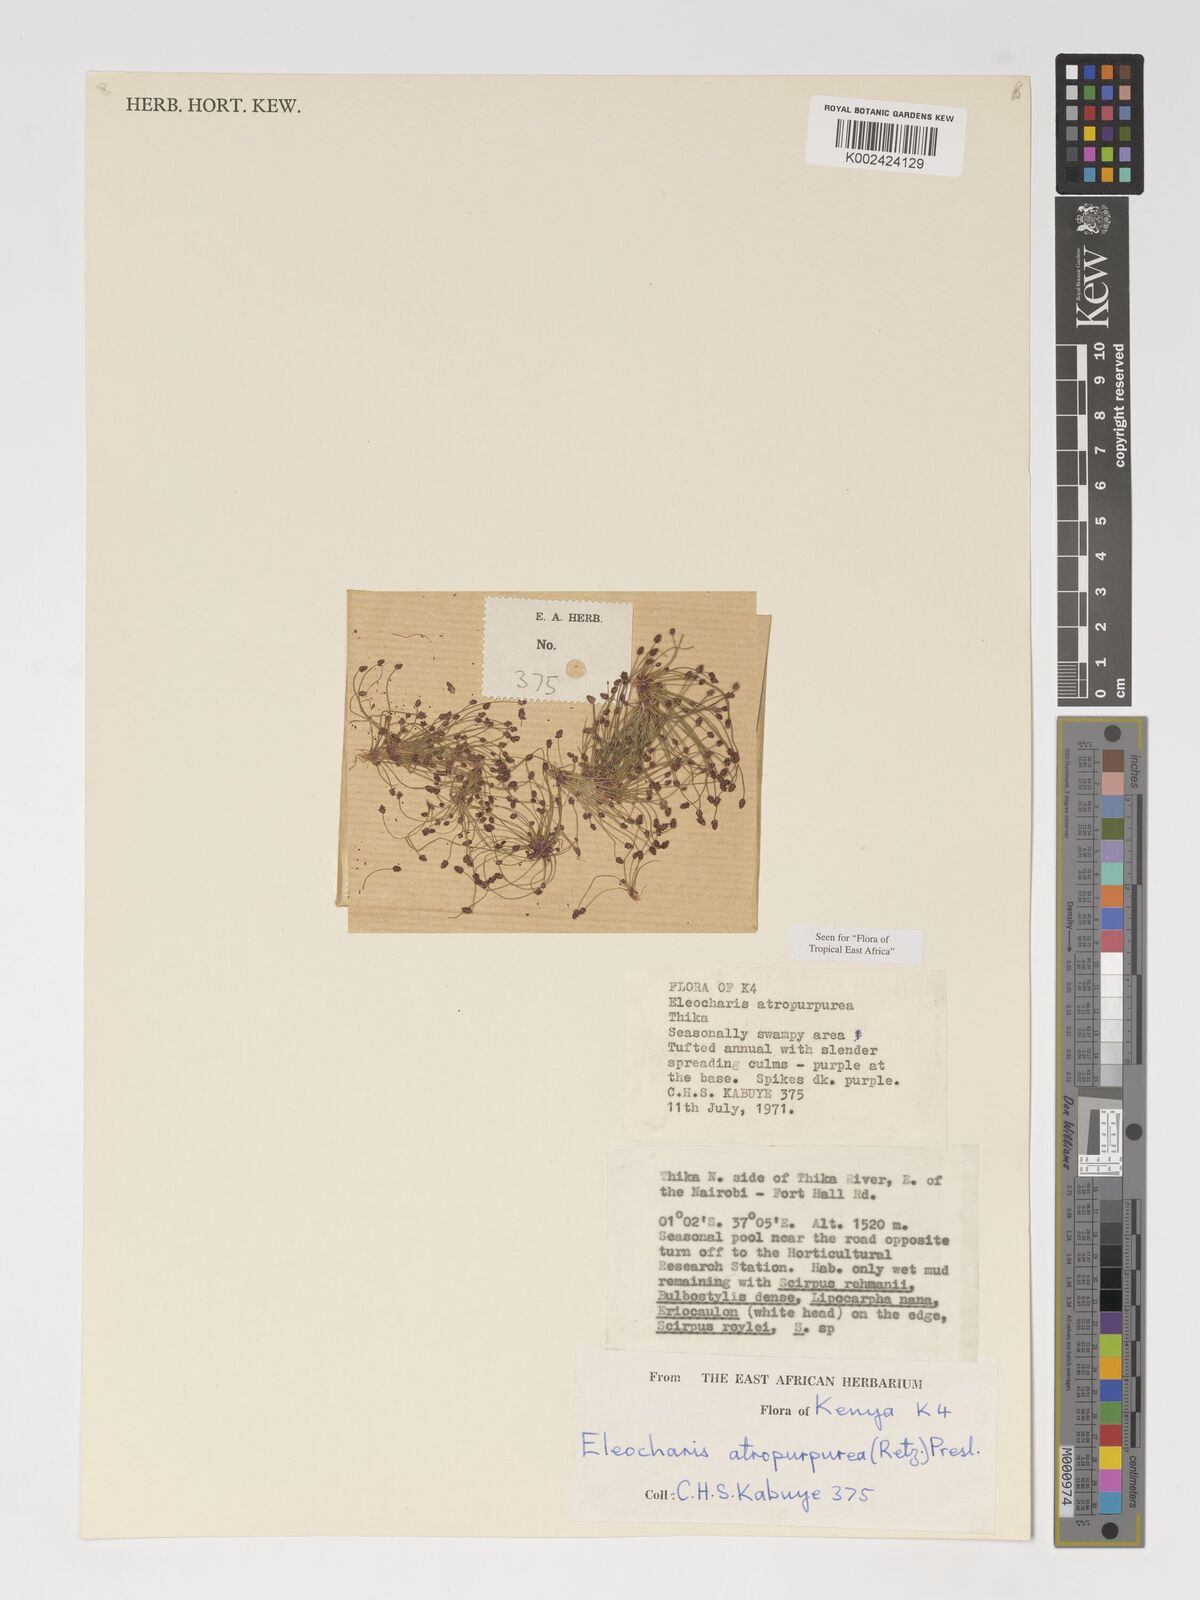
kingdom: Plantae
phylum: Tracheophyta
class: Liliopsida
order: Poales
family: Cyperaceae
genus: Eleocharis
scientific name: Eleocharis atropurpurea
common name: Purple spikerush
